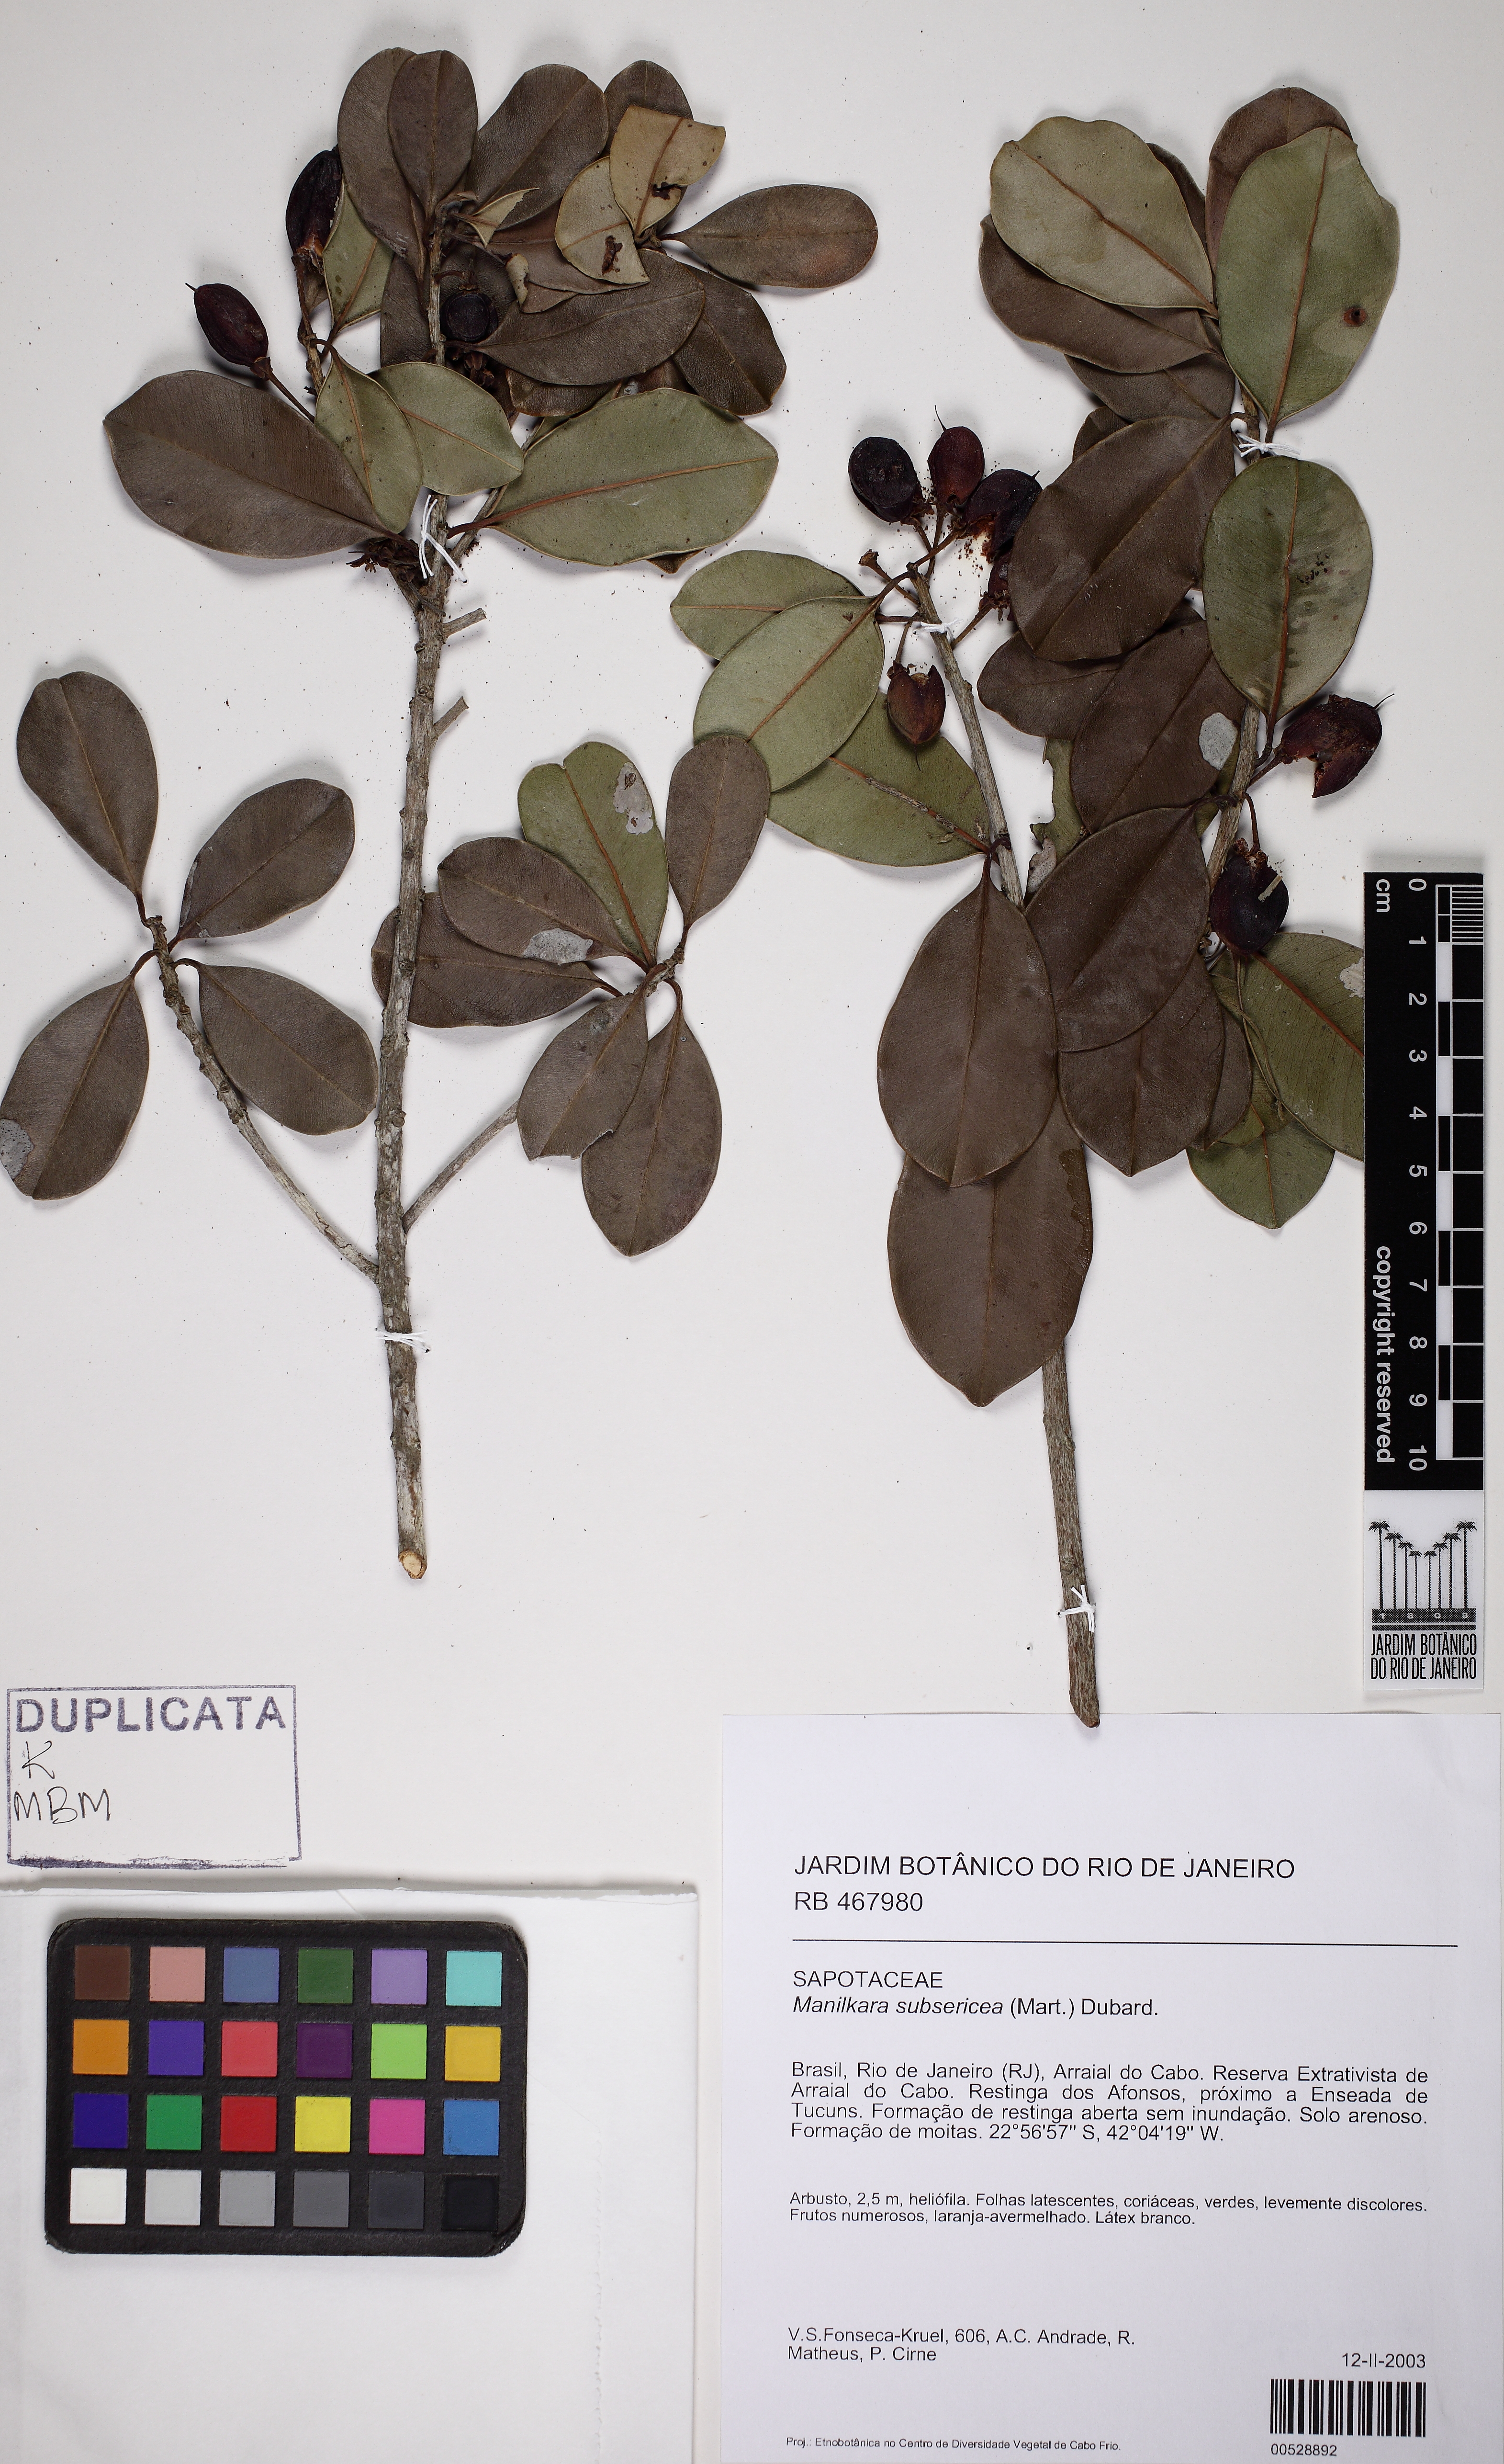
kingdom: Plantae
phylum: Tracheophyta
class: Magnoliopsida
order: Ericales
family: Sapotaceae
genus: Manilkara
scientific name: Manilkara subsericea
